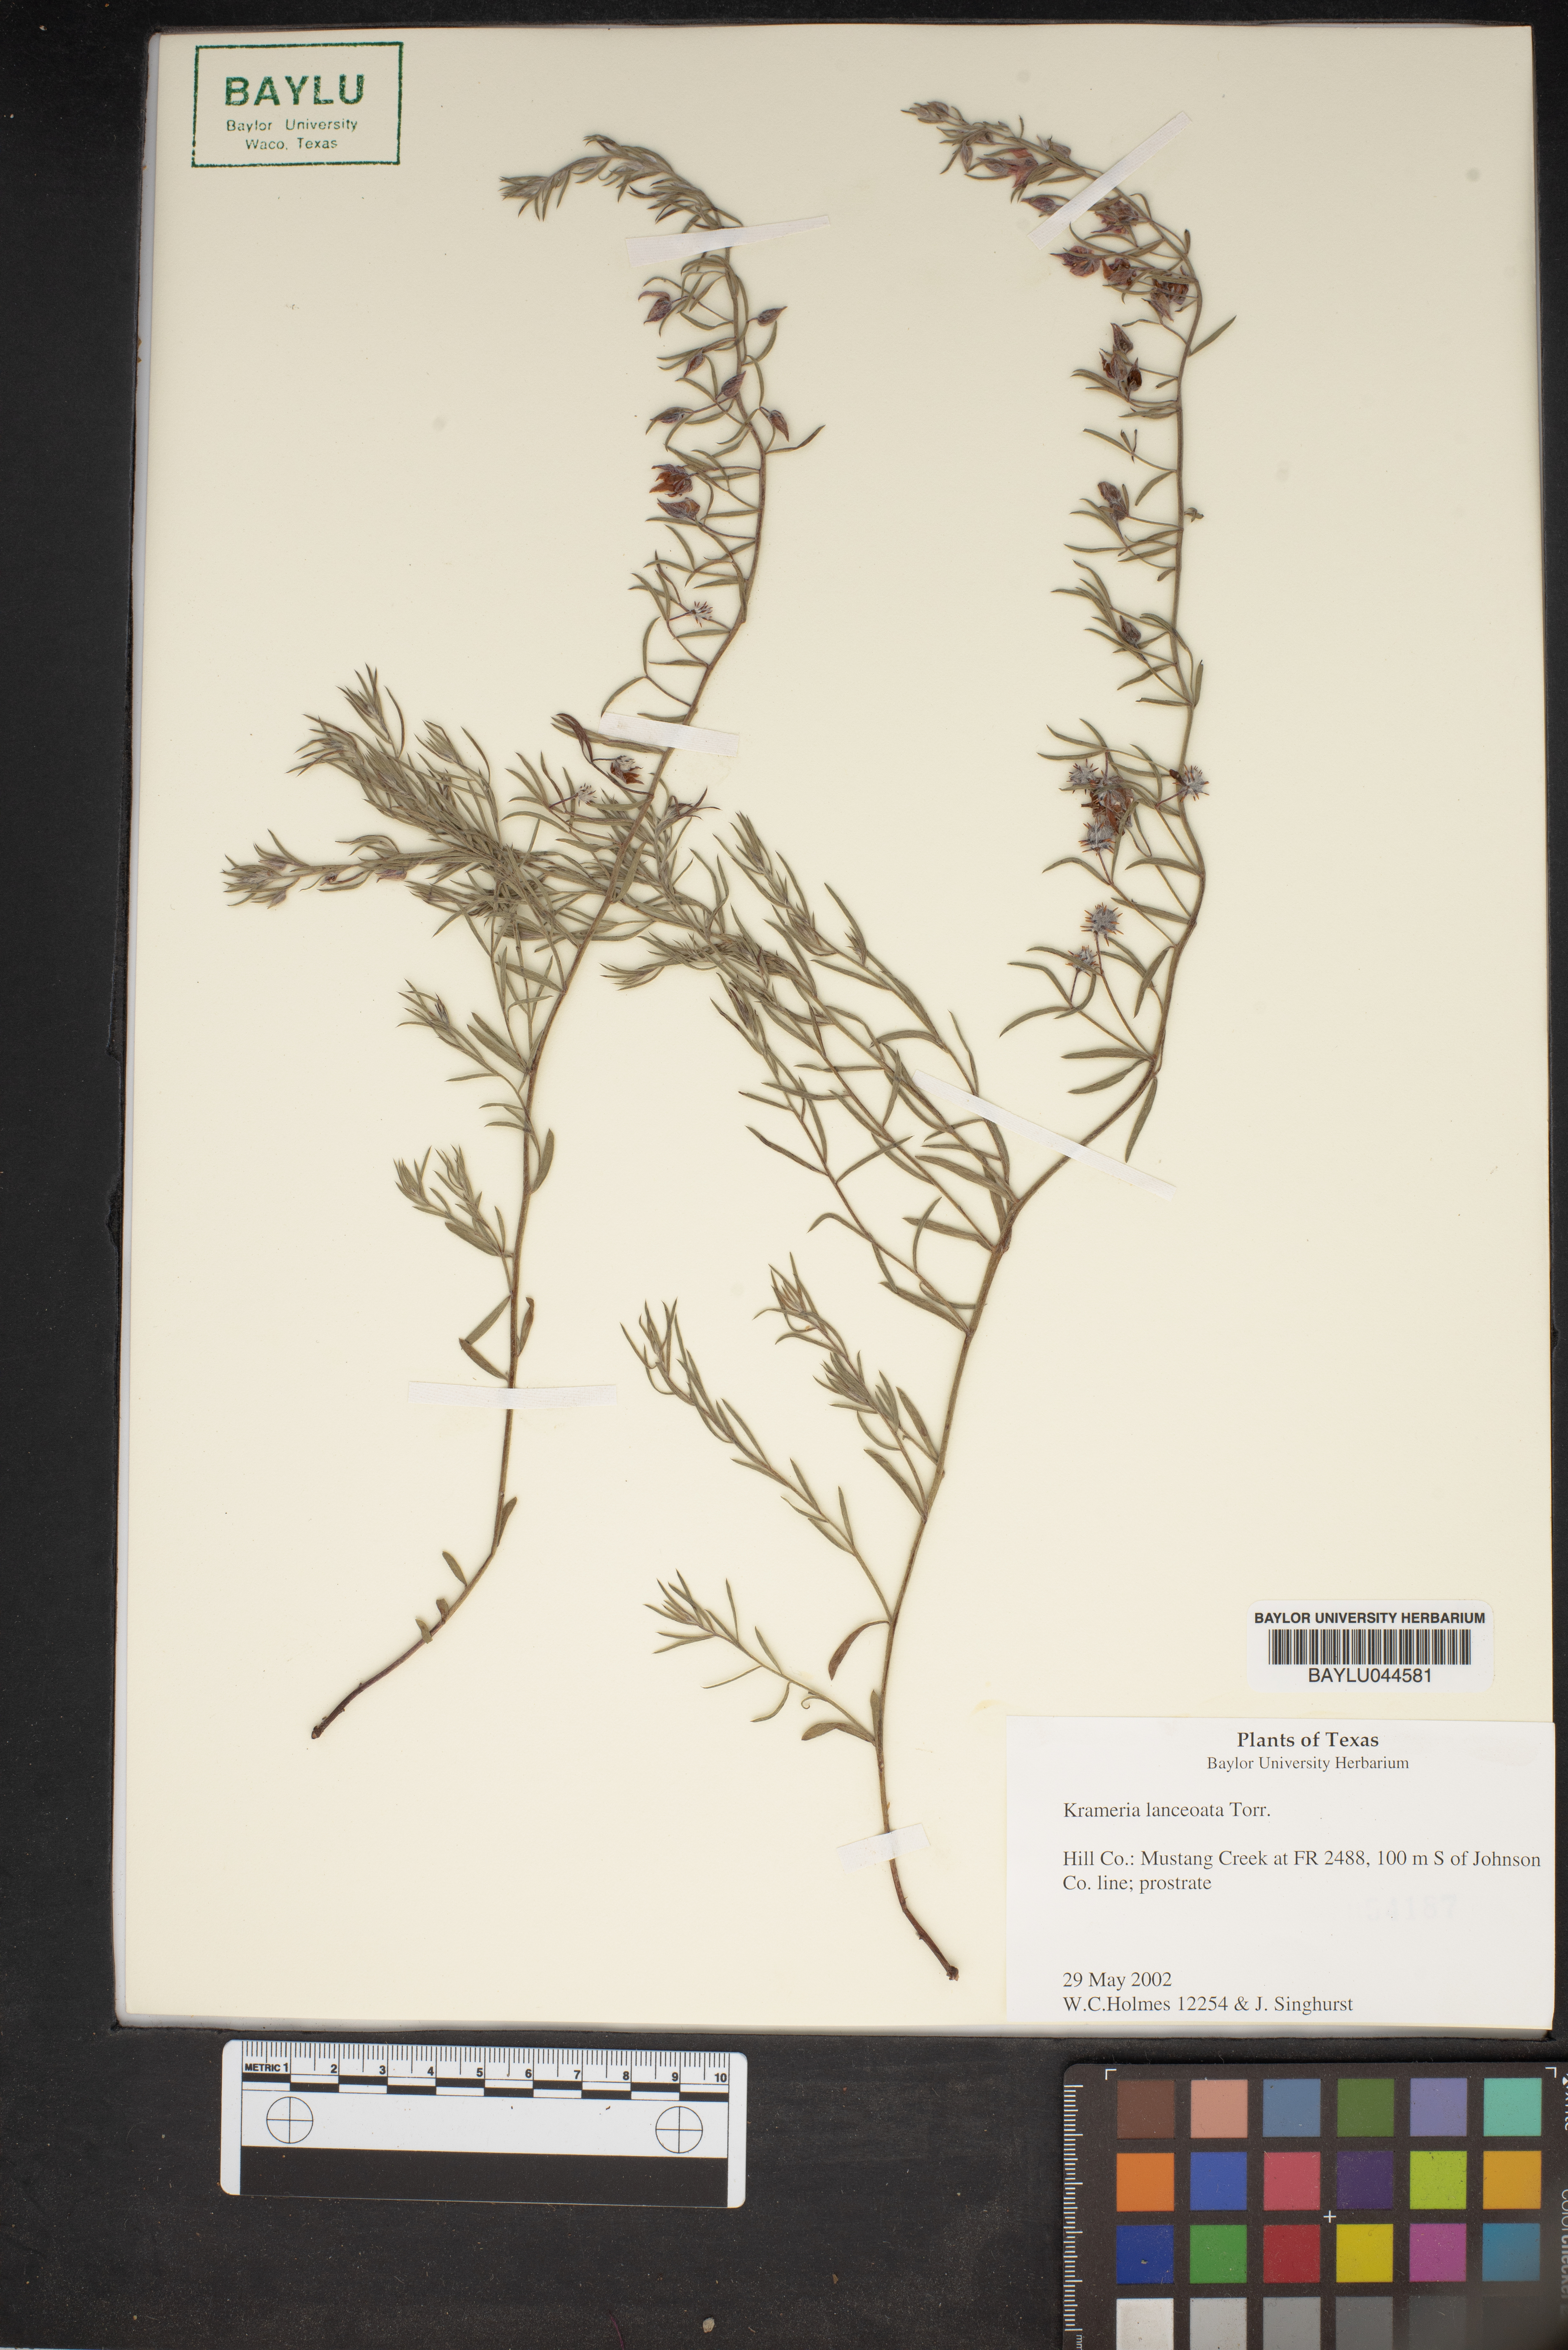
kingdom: Plantae
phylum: Tracheophyta
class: Magnoliopsida
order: Zygophyllales
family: Krameriaceae
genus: Krameria
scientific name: Krameria lanceolata
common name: Ratany
